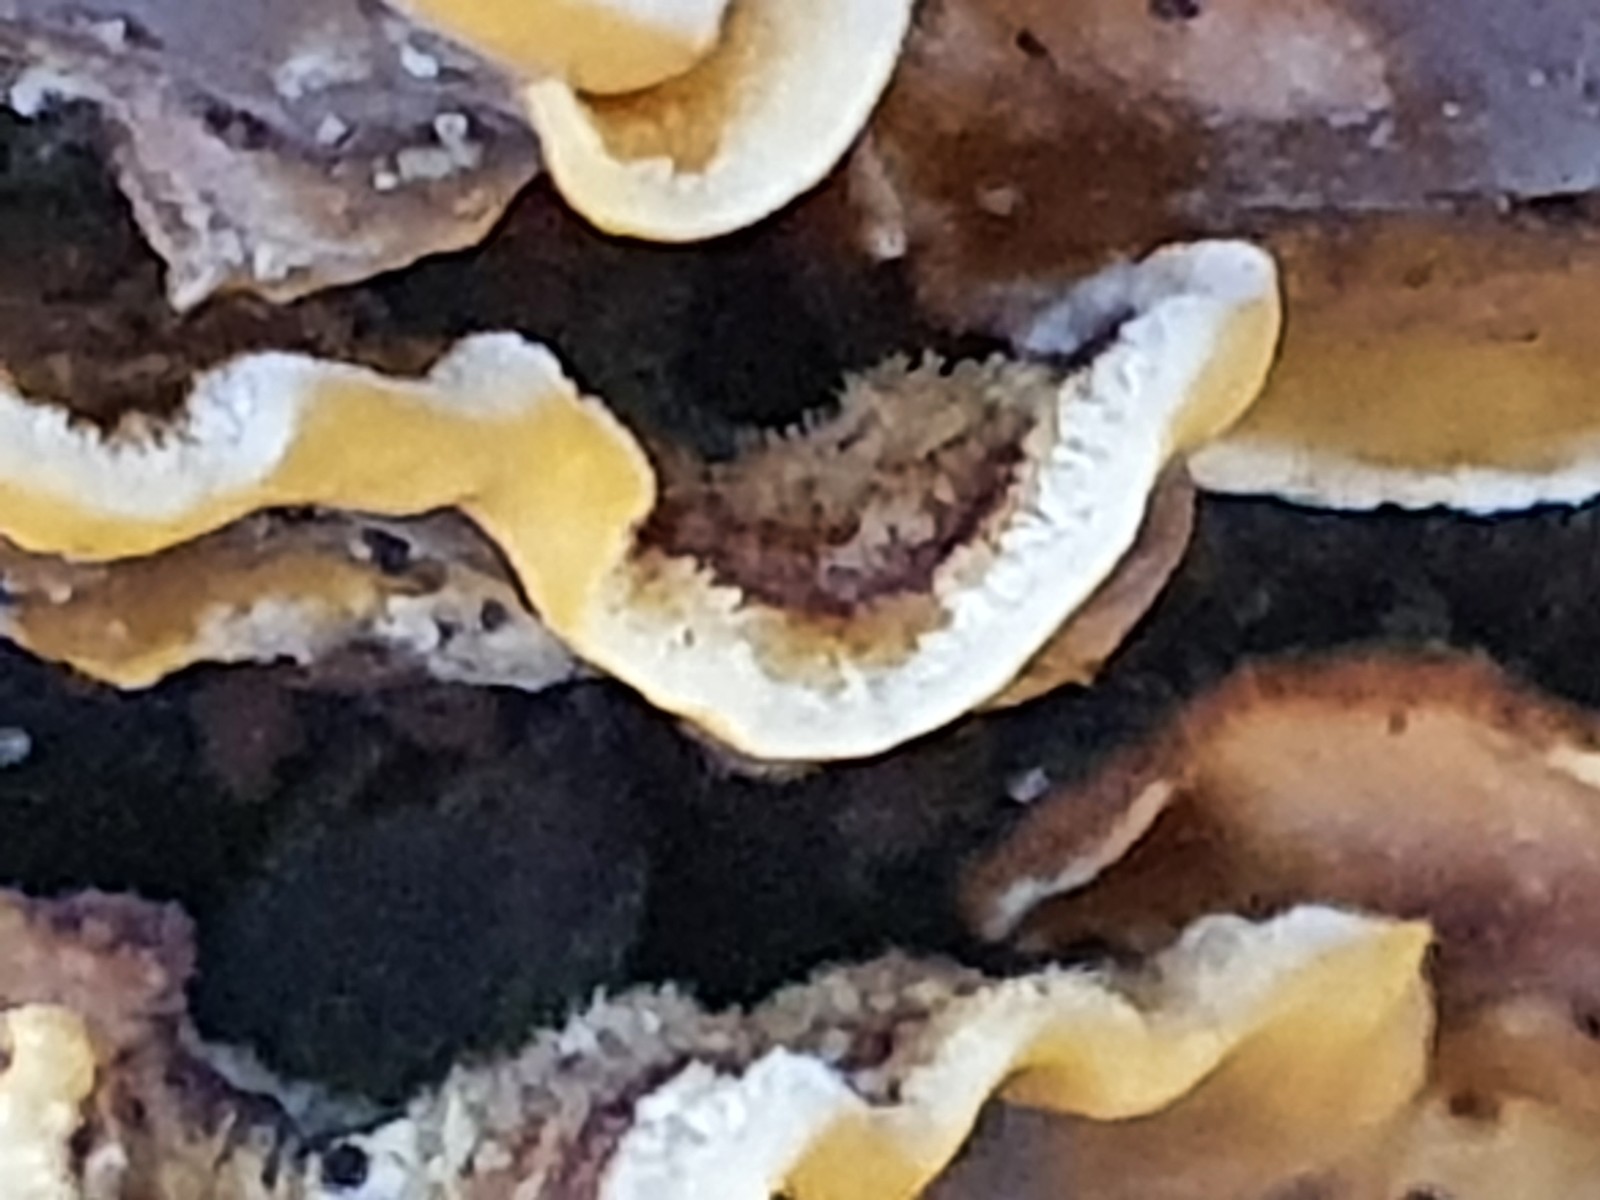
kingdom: Fungi
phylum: Basidiomycota
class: Agaricomycetes
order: Russulales
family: Stereaceae
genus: Stereum
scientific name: Stereum hirsutum
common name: håret lædersvamp
